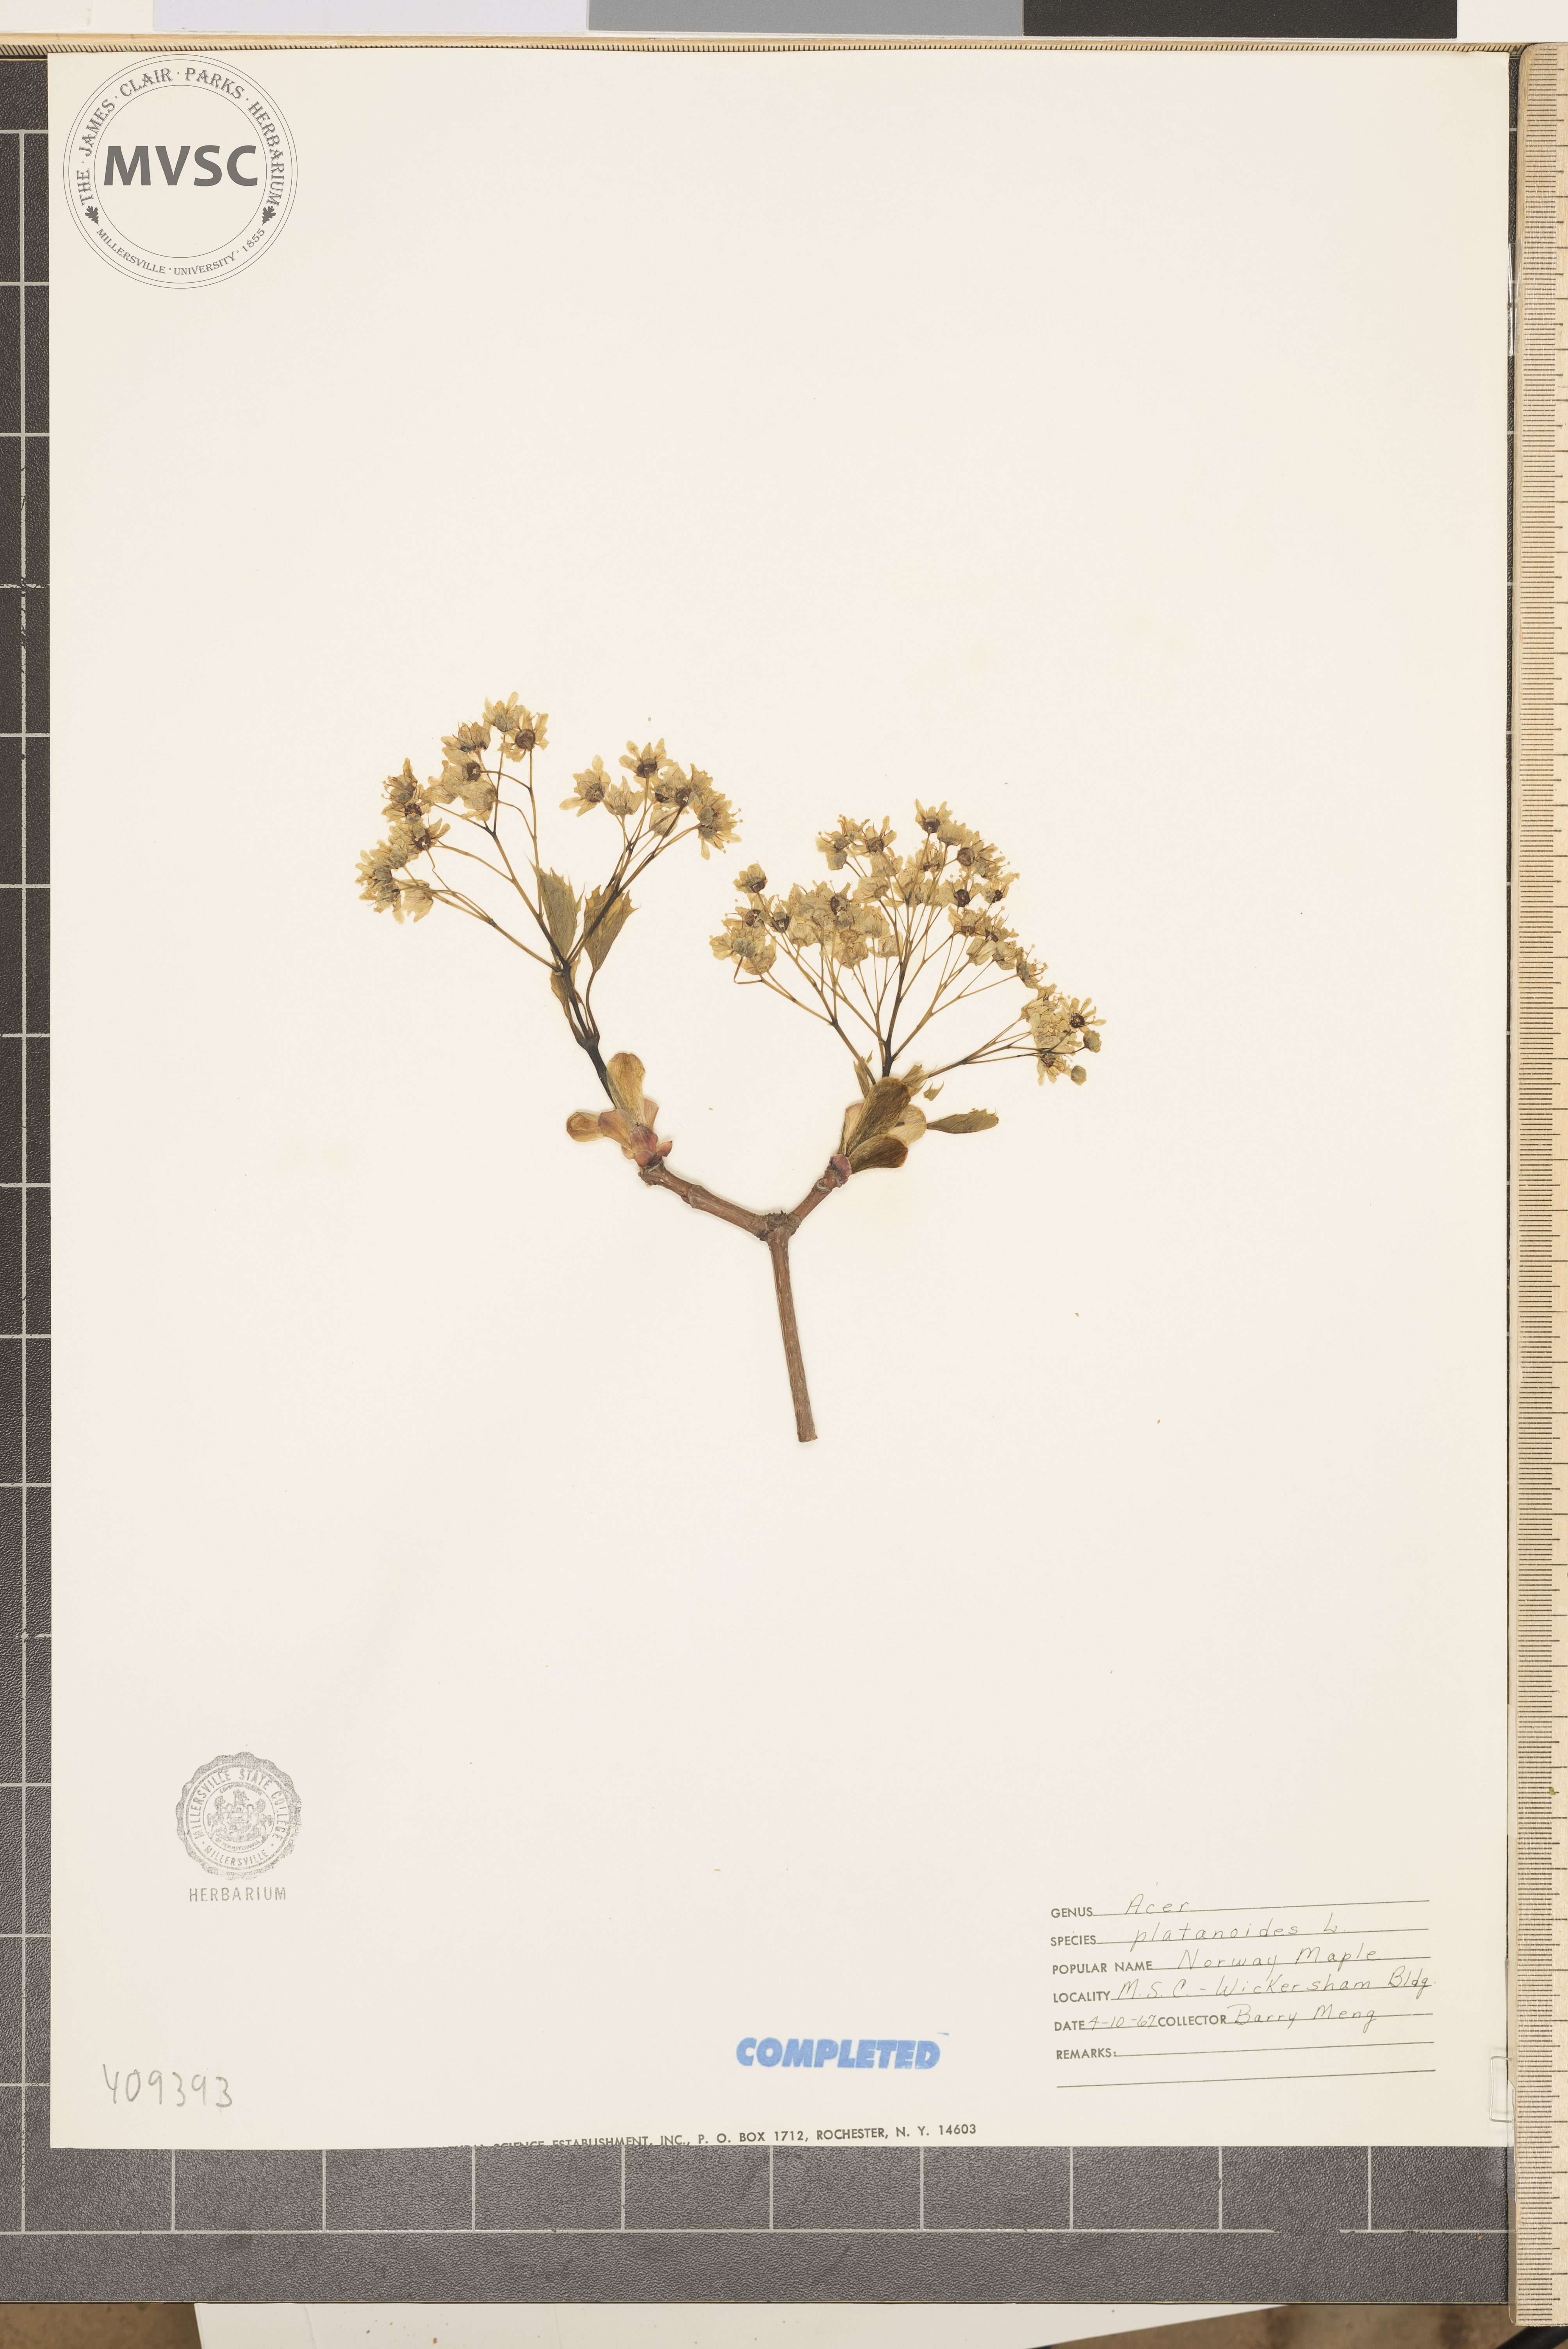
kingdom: Plantae
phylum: Tracheophyta
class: Magnoliopsida
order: Sapindales
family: Sapindaceae
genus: Acer
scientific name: Acer platanoides
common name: Norway maple
